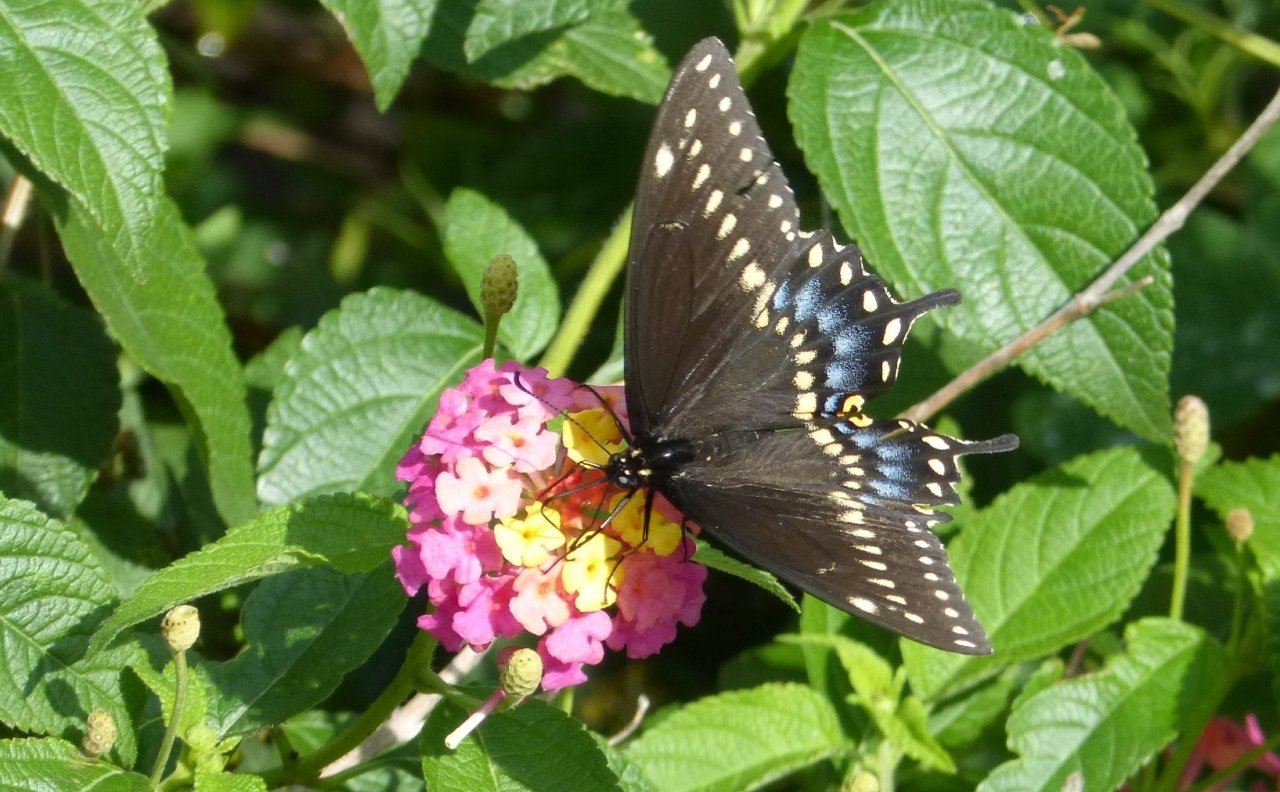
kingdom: Animalia
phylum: Arthropoda
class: Insecta
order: Lepidoptera
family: Papilionidae
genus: Papilio
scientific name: Papilio polyxenes
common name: Black Swallowtail
